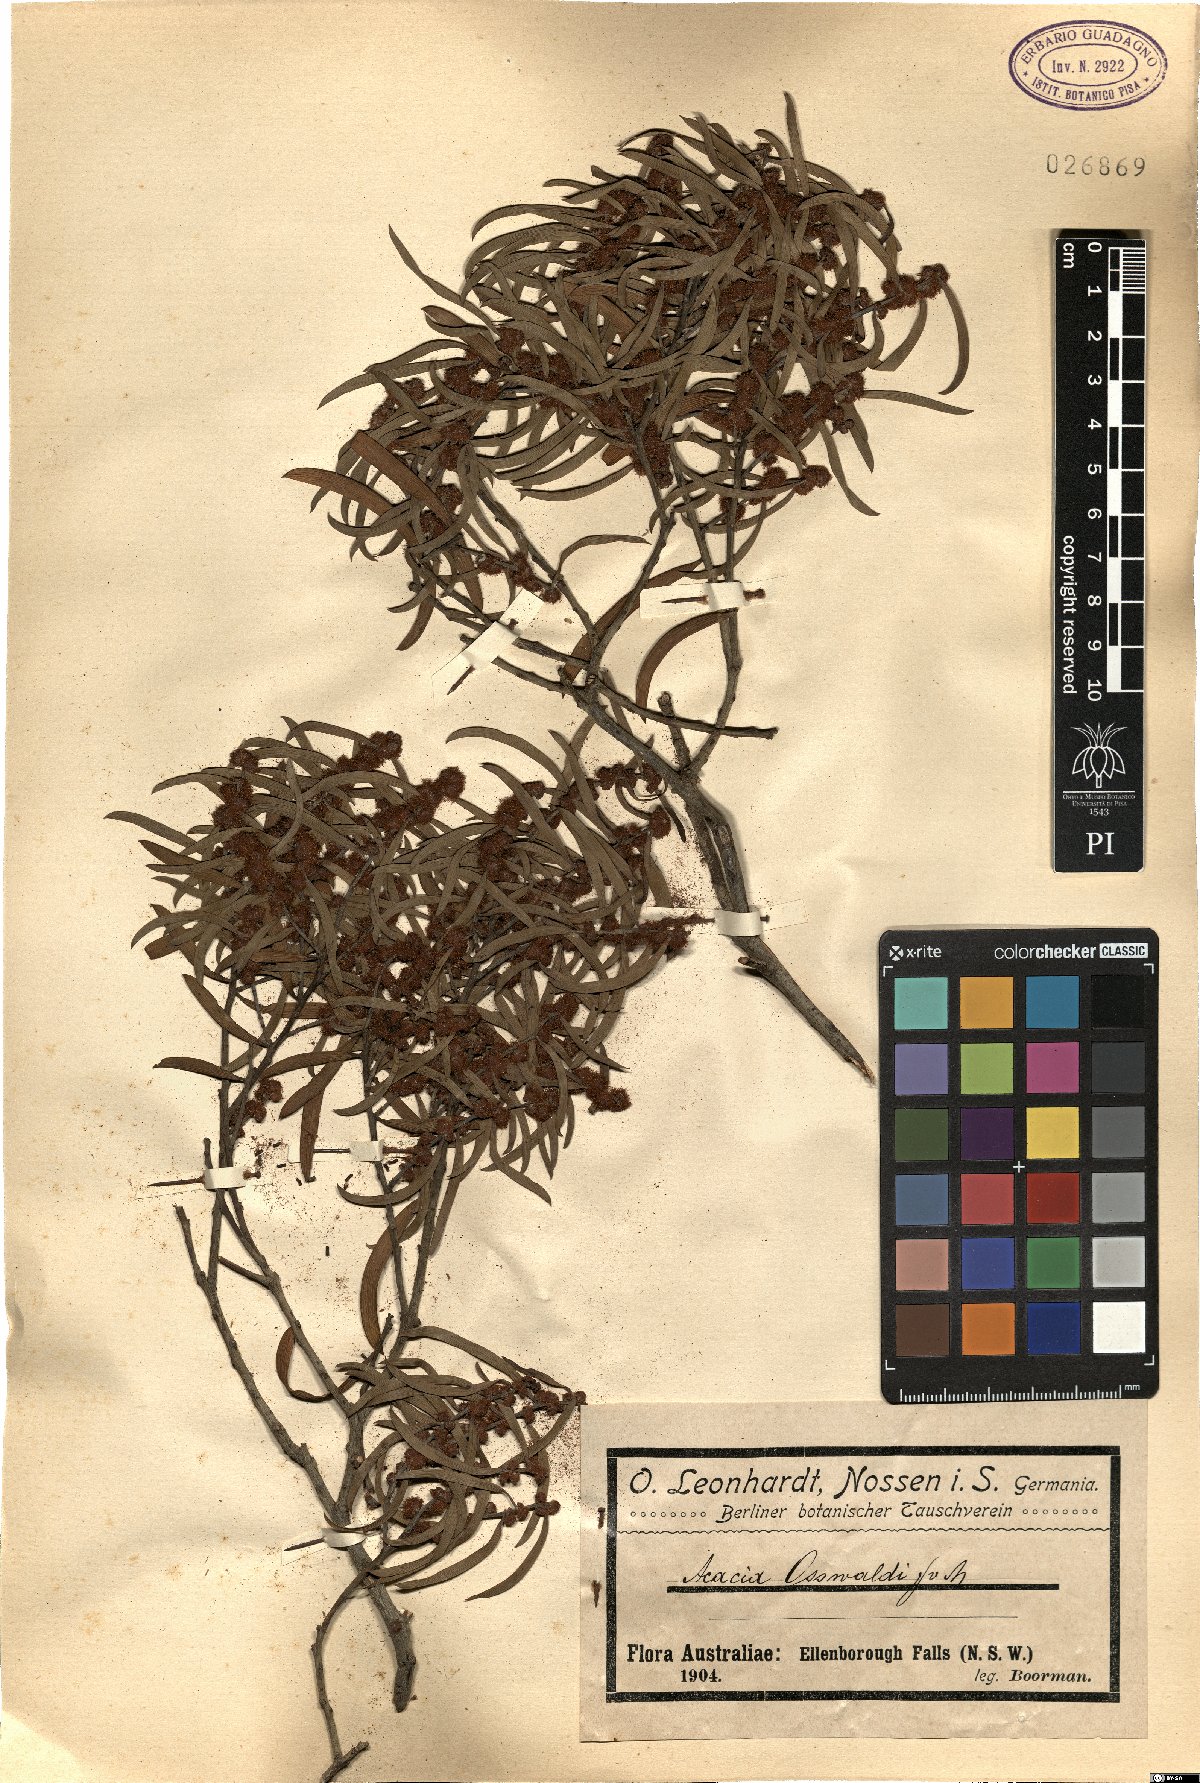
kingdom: Plantae
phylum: Tracheophyta
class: Magnoliopsida
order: Fabales
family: Fabaceae
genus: Acacia
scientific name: Acacia oswaldii
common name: Umbrella wattle
